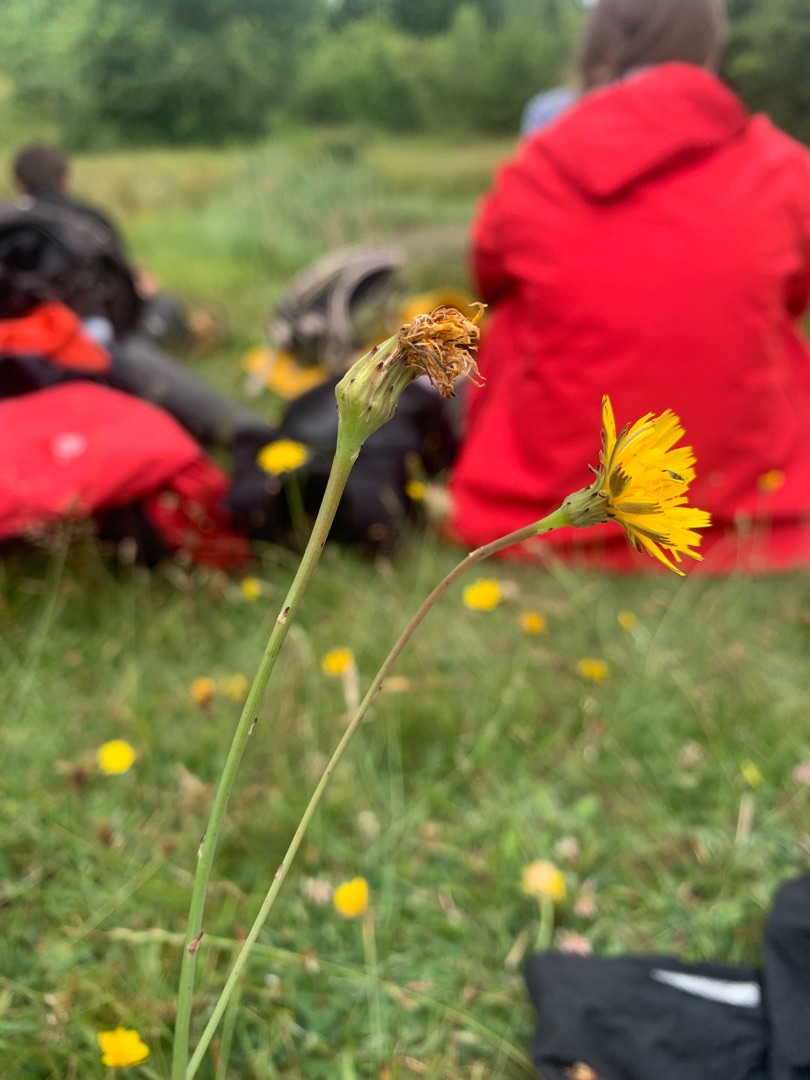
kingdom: Plantae
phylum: Tracheophyta
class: Magnoliopsida
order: Asterales
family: Asteraceae
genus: Hypochaeris
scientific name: Hypochaeris radicata
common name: Almindelig kongepen
